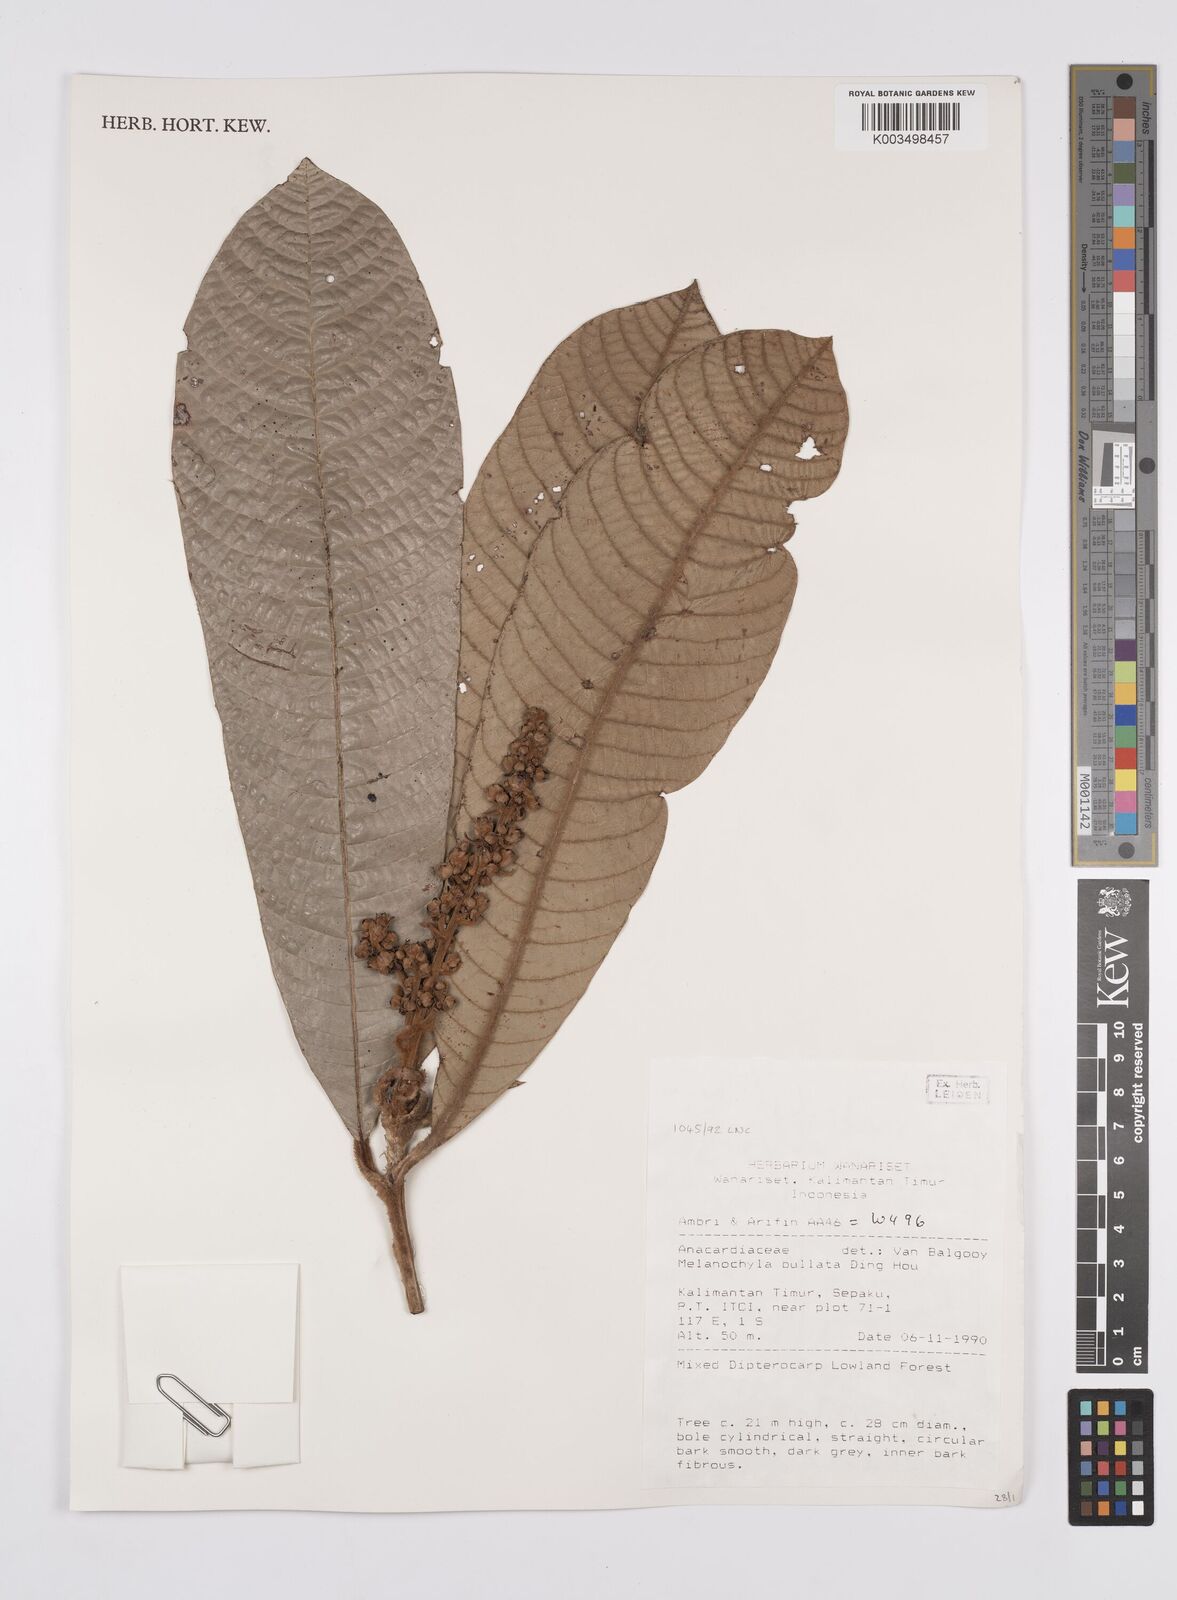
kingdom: Plantae
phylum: Tracheophyta
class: Magnoliopsida
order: Sapindales
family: Anacardiaceae
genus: Melanochyla
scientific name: Melanochyla bullata
